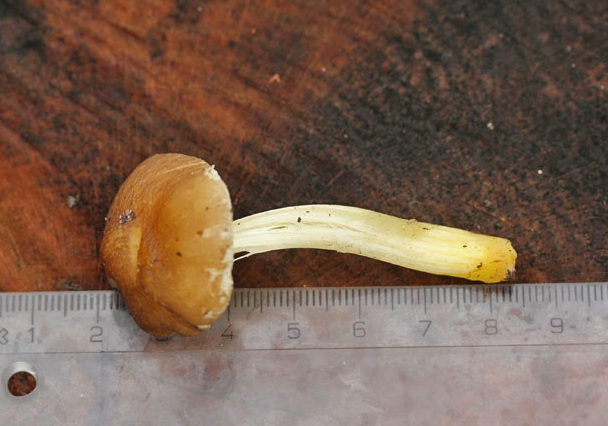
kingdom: Fungi
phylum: Basidiomycota
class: Agaricomycetes
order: Agaricales
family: Pluteaceae
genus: Pluteus
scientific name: Pluteus romellii
